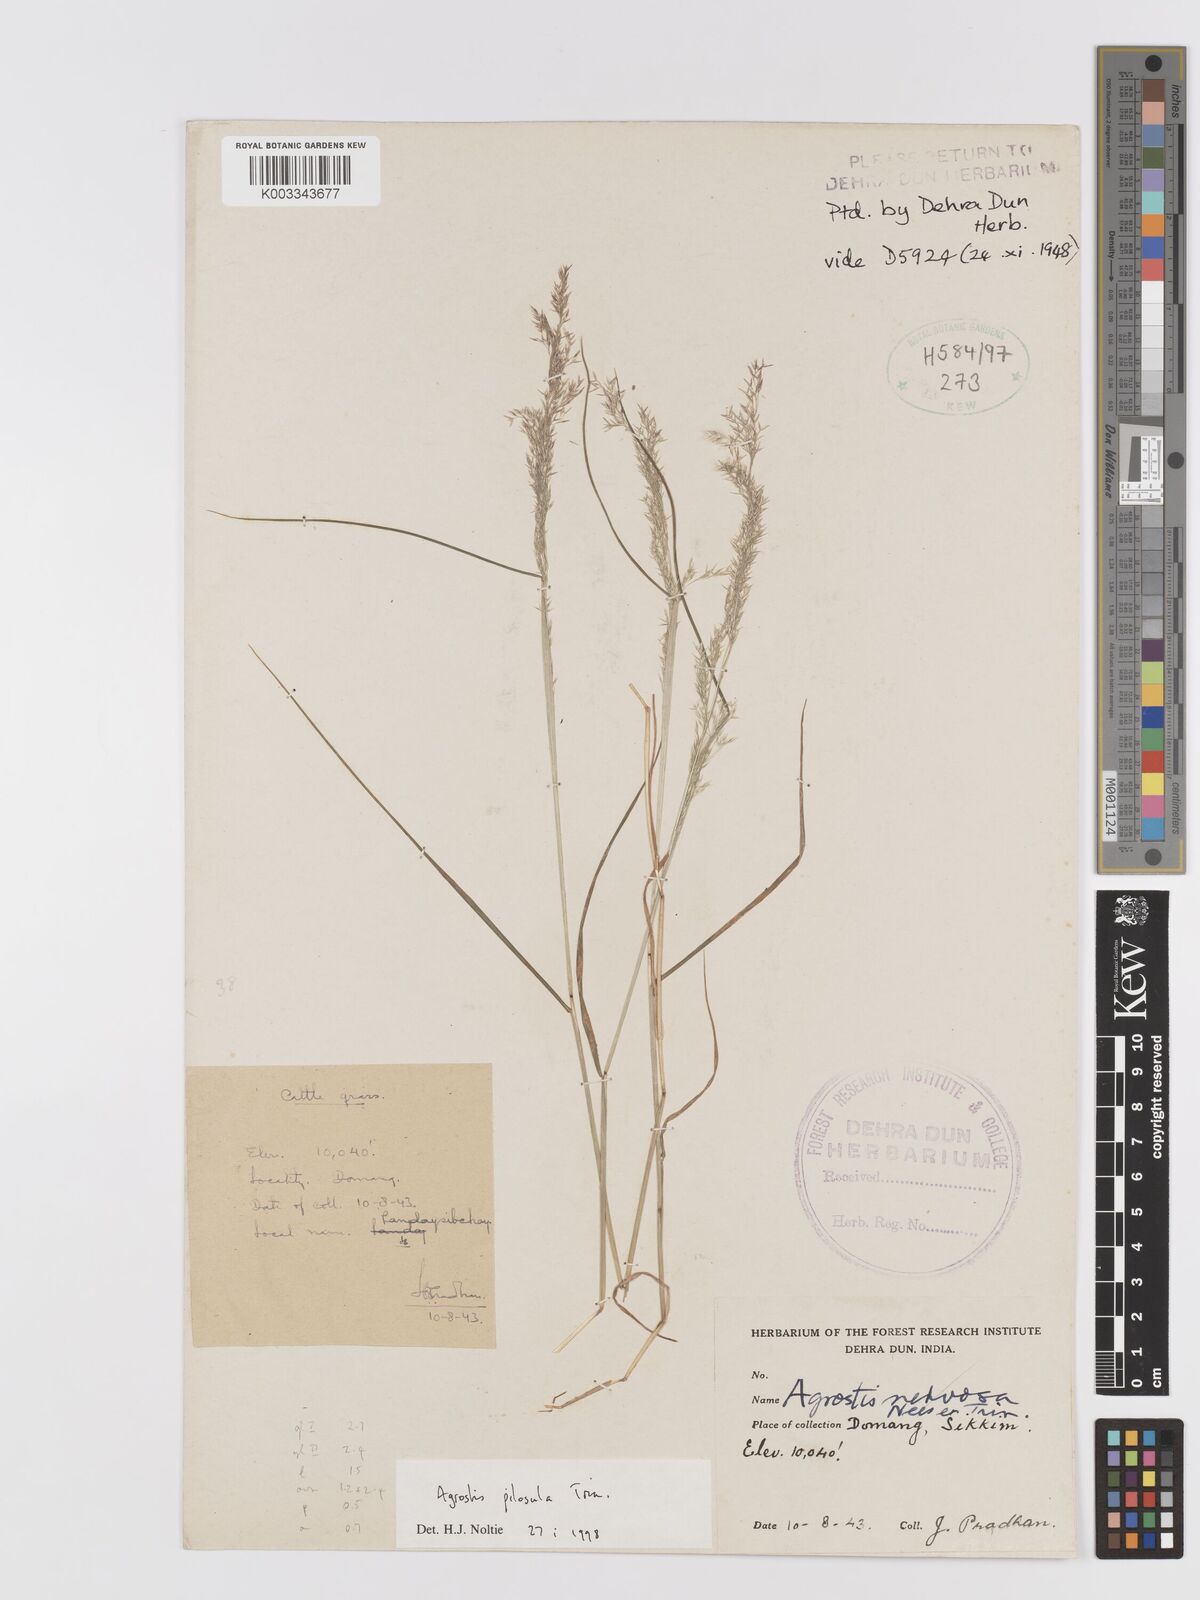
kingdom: Plantae
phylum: Tracheophyta
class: Liliopsida
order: Poales
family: Poaceae
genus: Agrostis
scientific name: Agrostis pilosula
